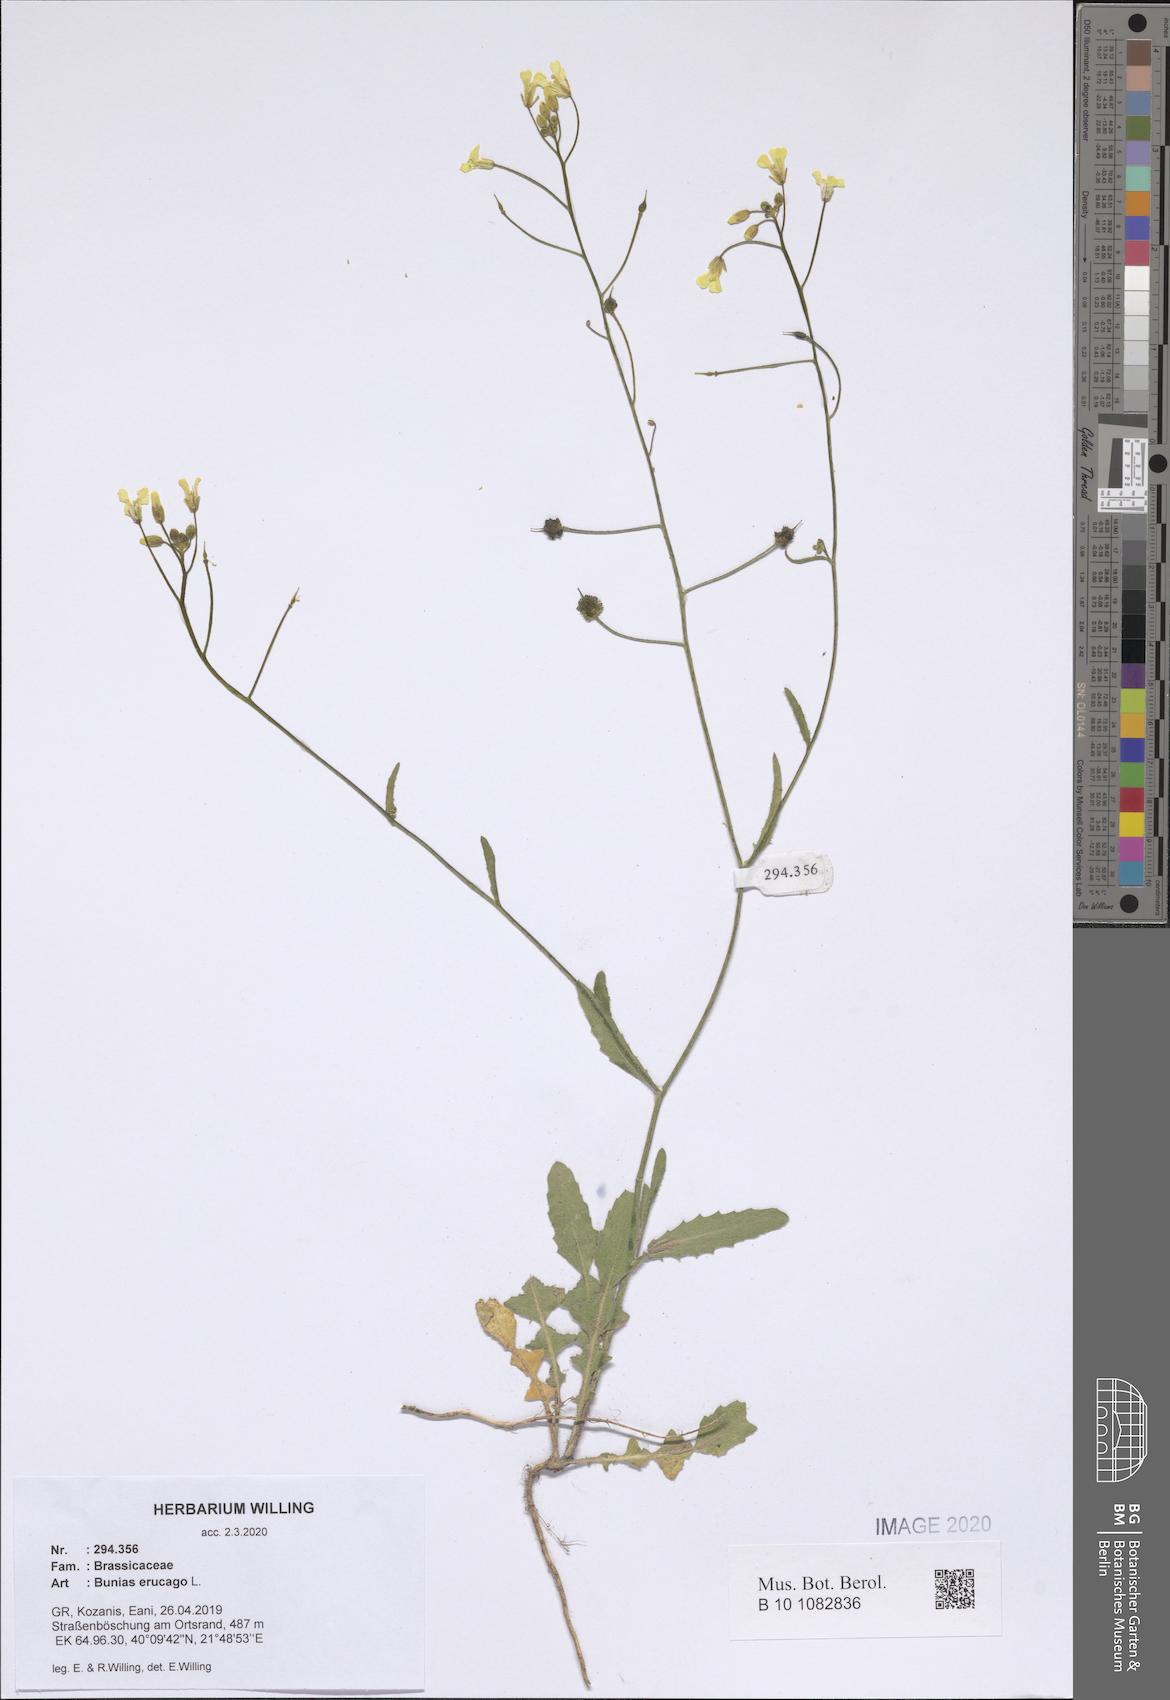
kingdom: Plantae
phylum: Tracheophyta
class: Magnoliopsida
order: Brassicales
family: Brassicaceae
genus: Bunias
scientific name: Bunias erucago
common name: Southern warty-cabbage
